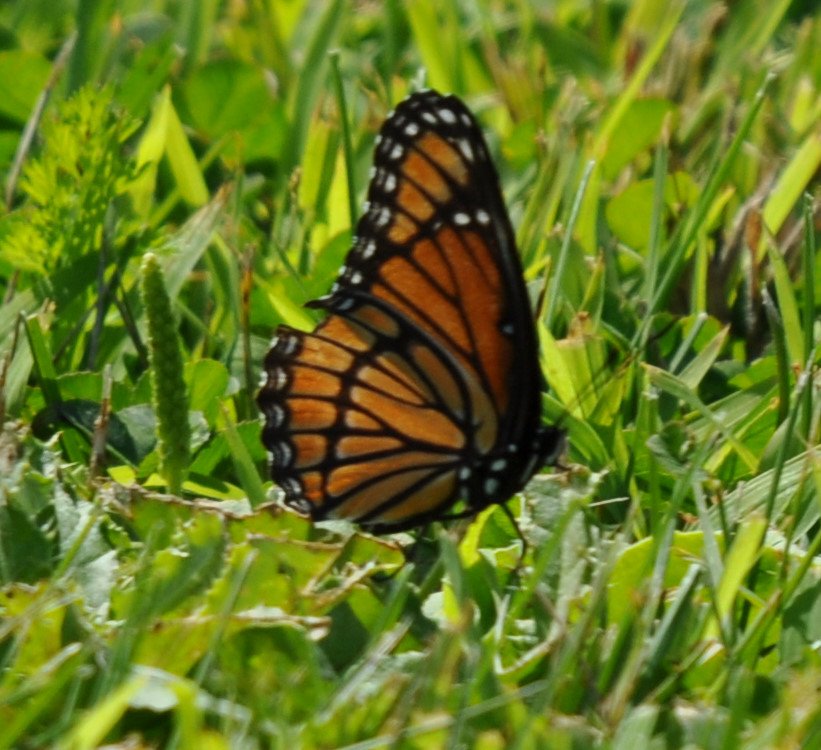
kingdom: Animalia
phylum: Arthropoda
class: Insecta
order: Lepidoptera
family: Nymphalidae
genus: Limenitis
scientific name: Limenitis archippus
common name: Viceroy
